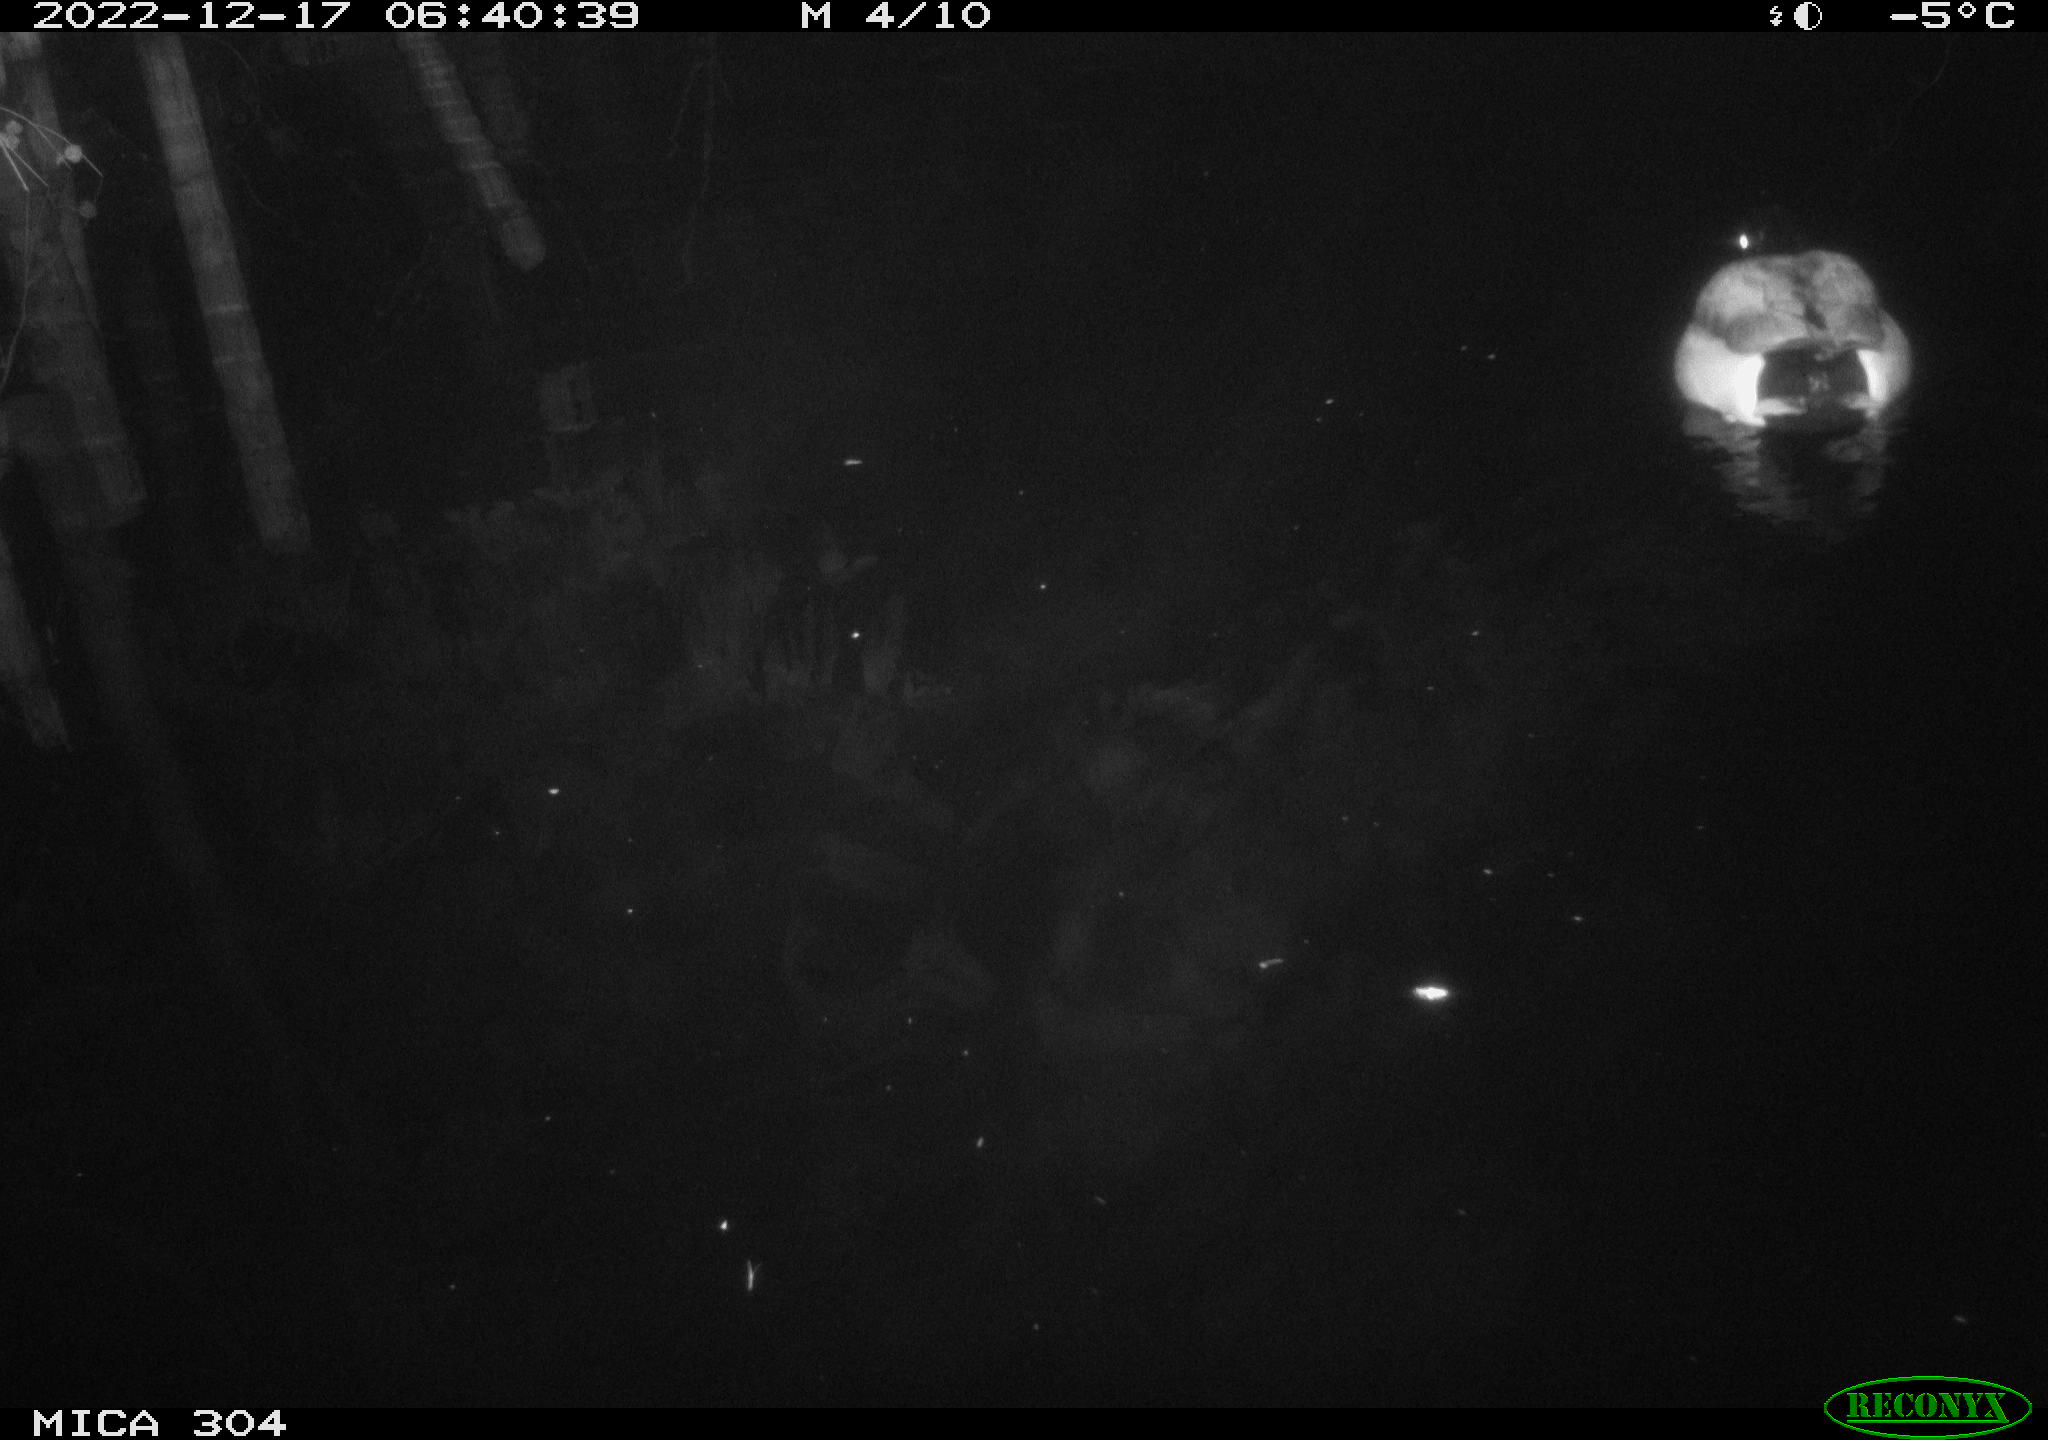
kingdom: Animalia
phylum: Chordata
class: Aves
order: Anseriformes
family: Anatidae
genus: Anas
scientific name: Anas
